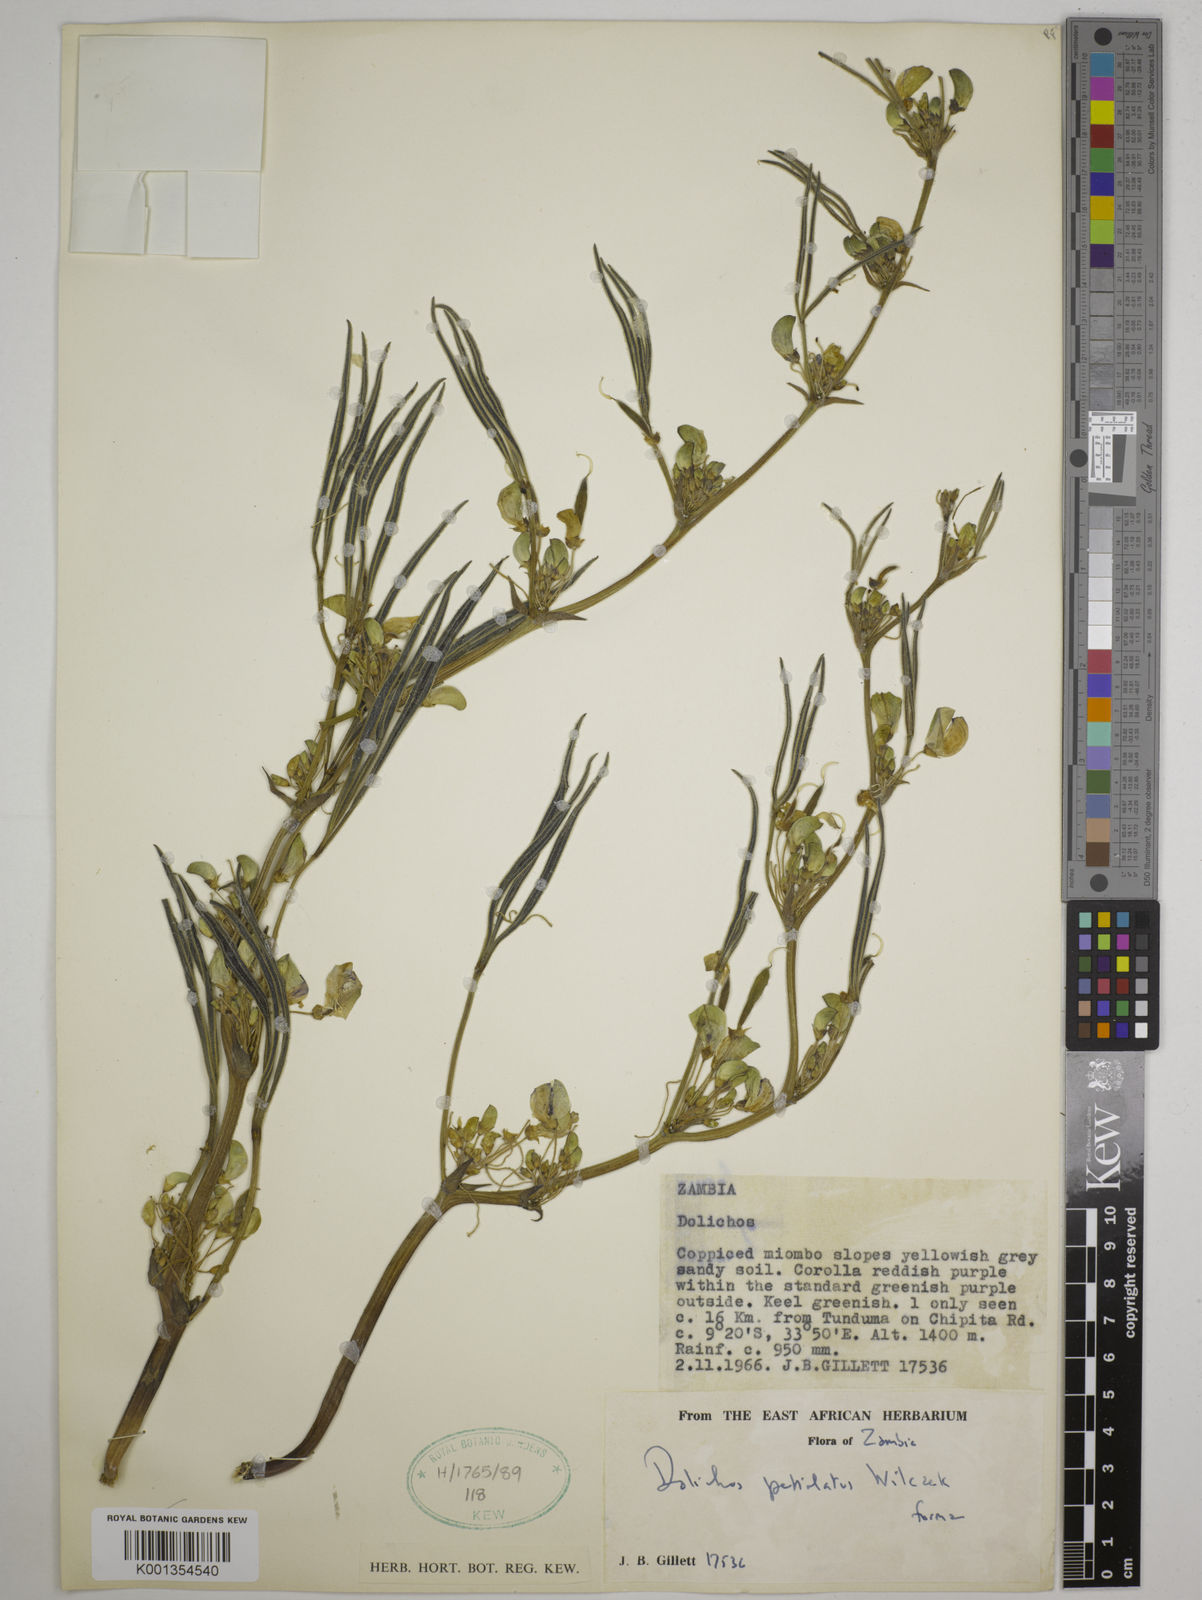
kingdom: Plantae
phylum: Tracheophyta
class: Magnoliopsida
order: Fabales
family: Fabaceae
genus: Dolichos
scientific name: Dolichos petiolatus
